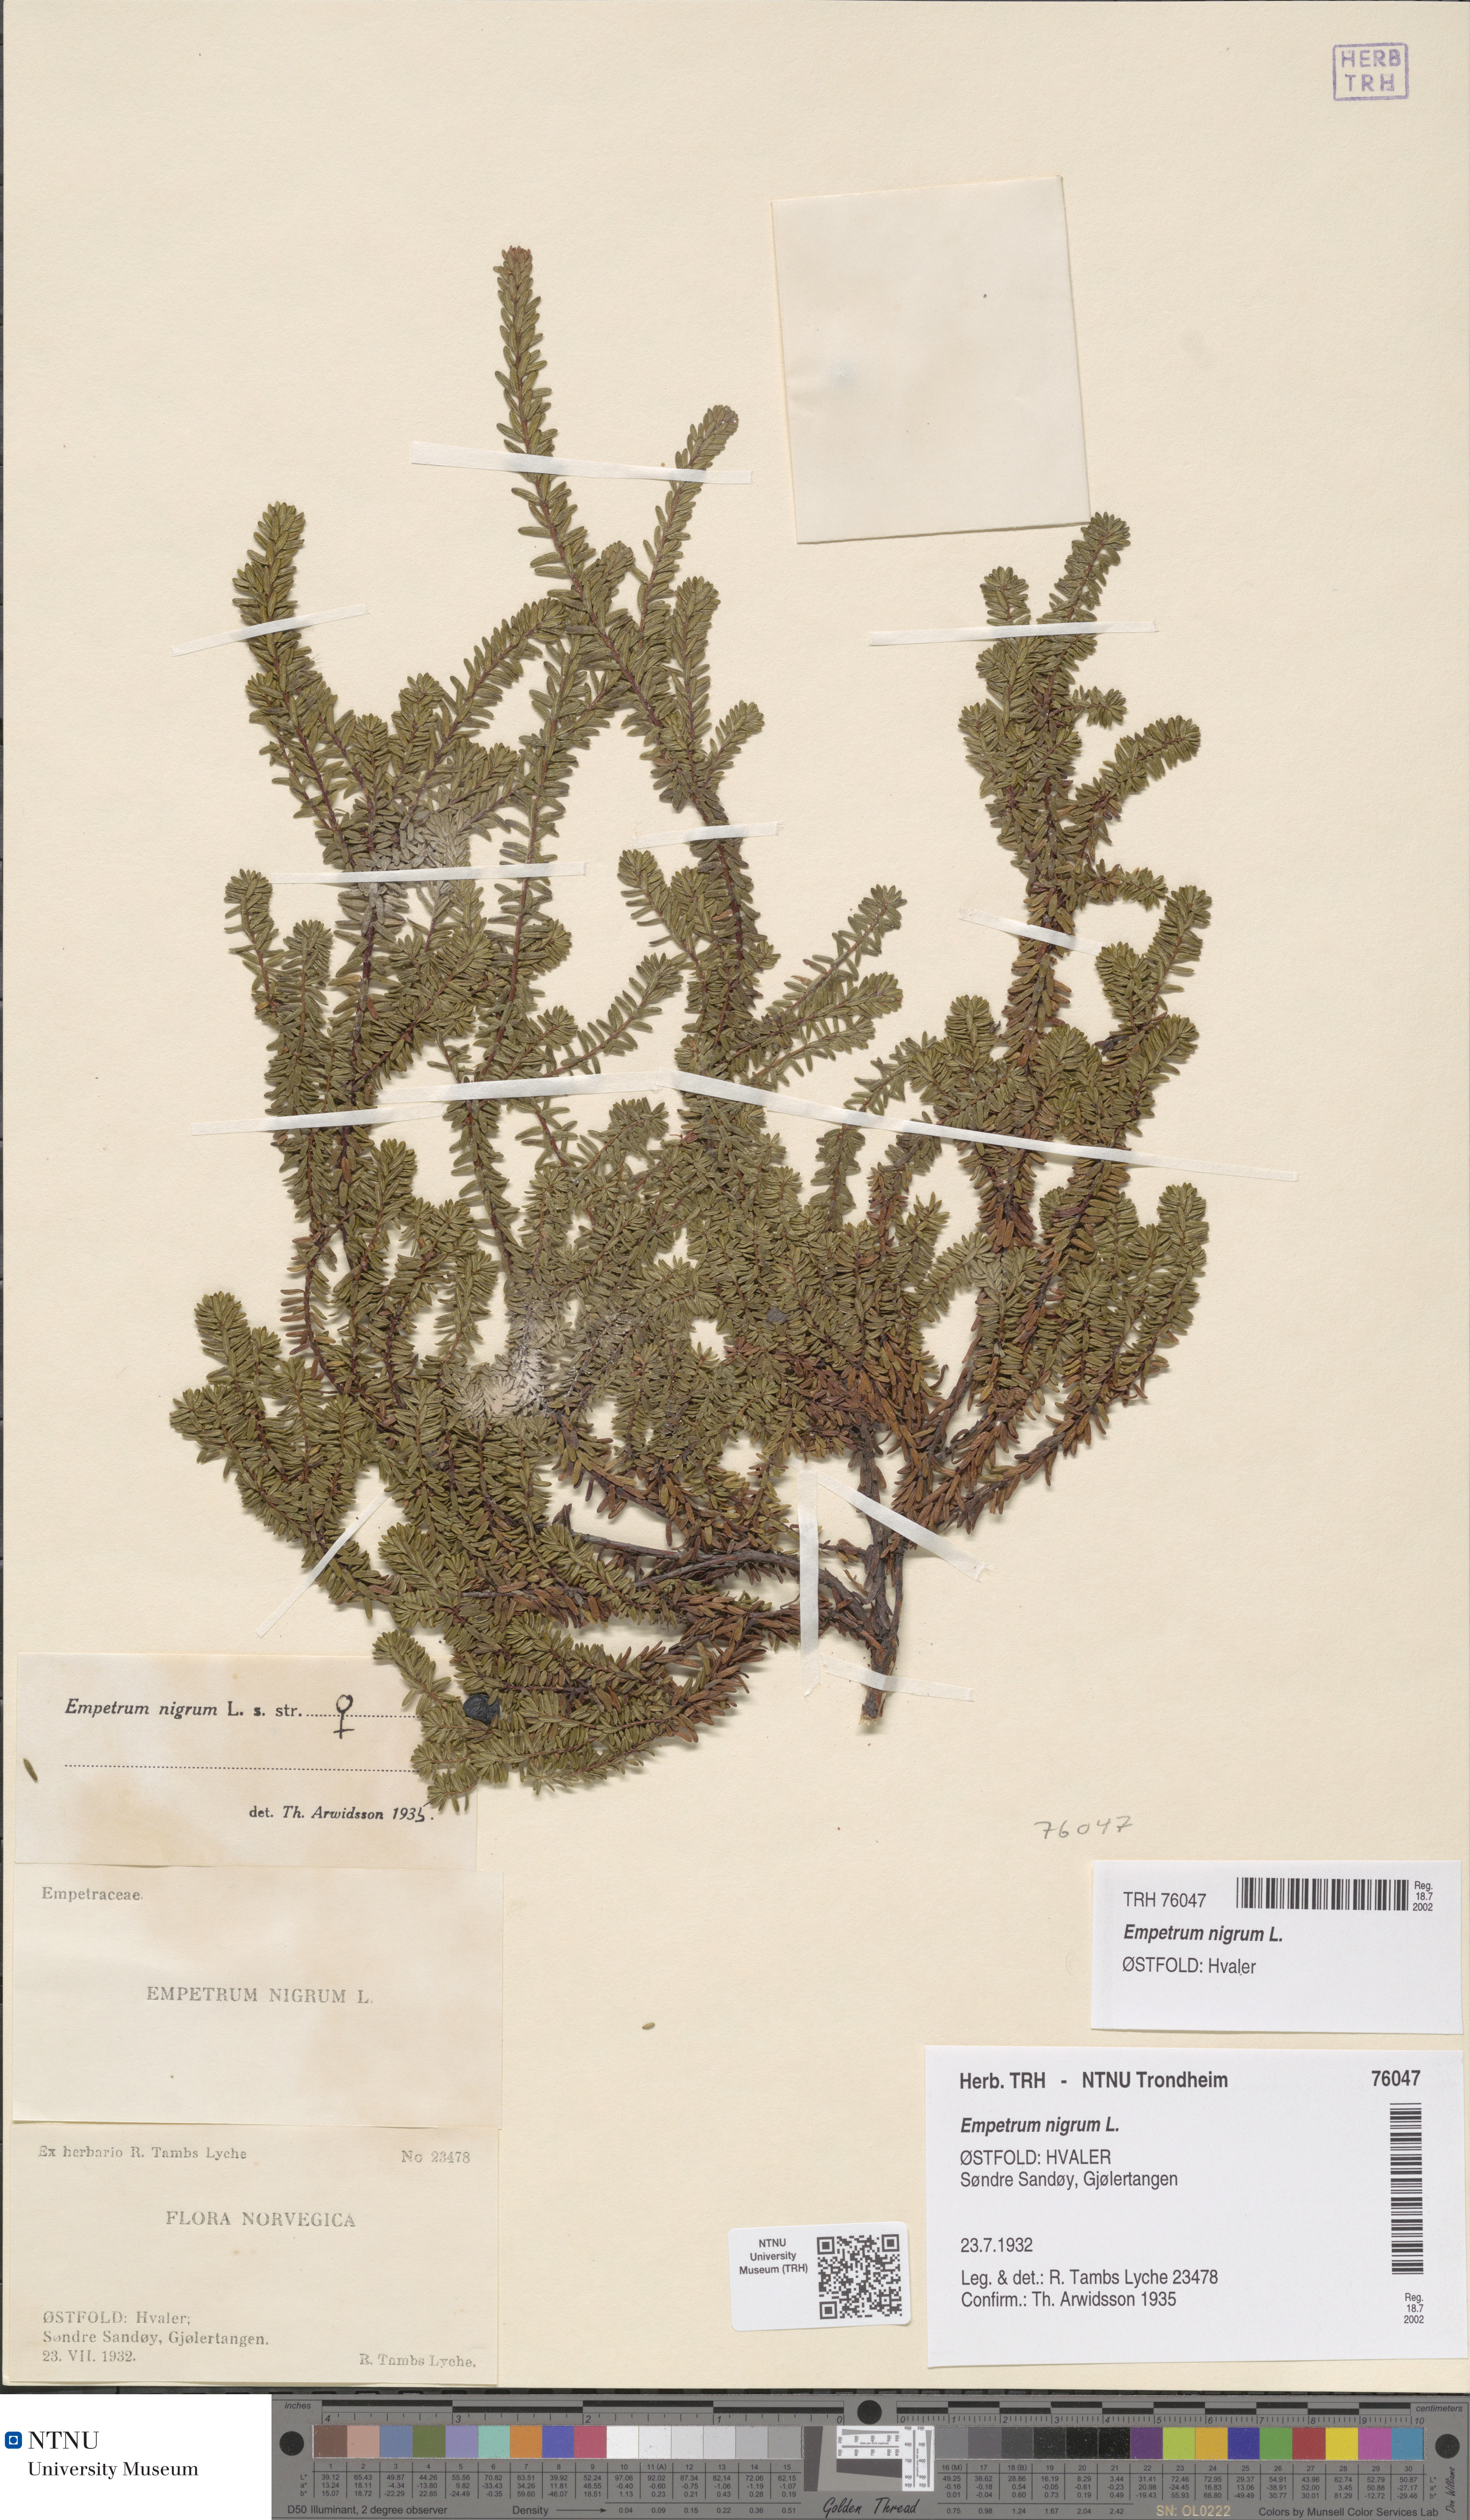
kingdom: Plantae
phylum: Tracheophyta
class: Magnoliopsida
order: Ericales
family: Ericaceae
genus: Empetrum
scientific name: Empetrum nigrum
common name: Black crowberry
